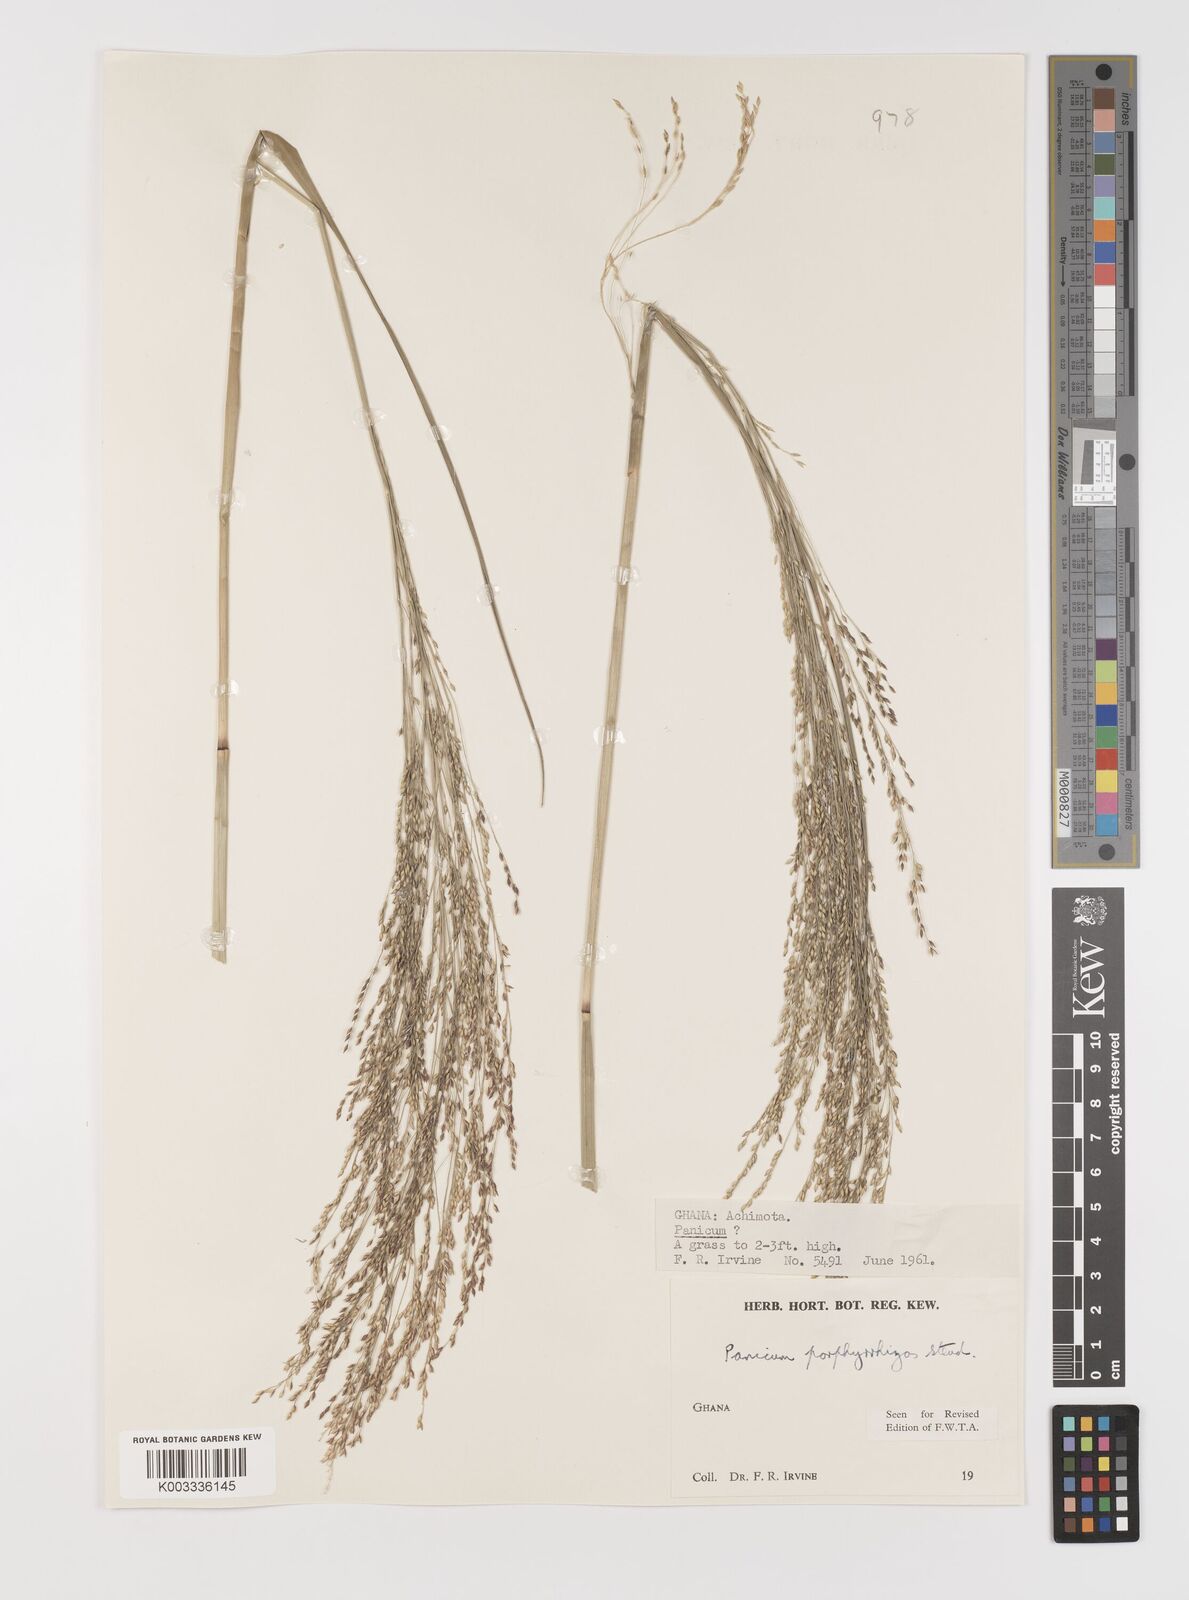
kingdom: Plantae
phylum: Tracheophyta
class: Liliopsida
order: Poales
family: Poaceae
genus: Panicum
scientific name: Panicum porphyrrhizos
